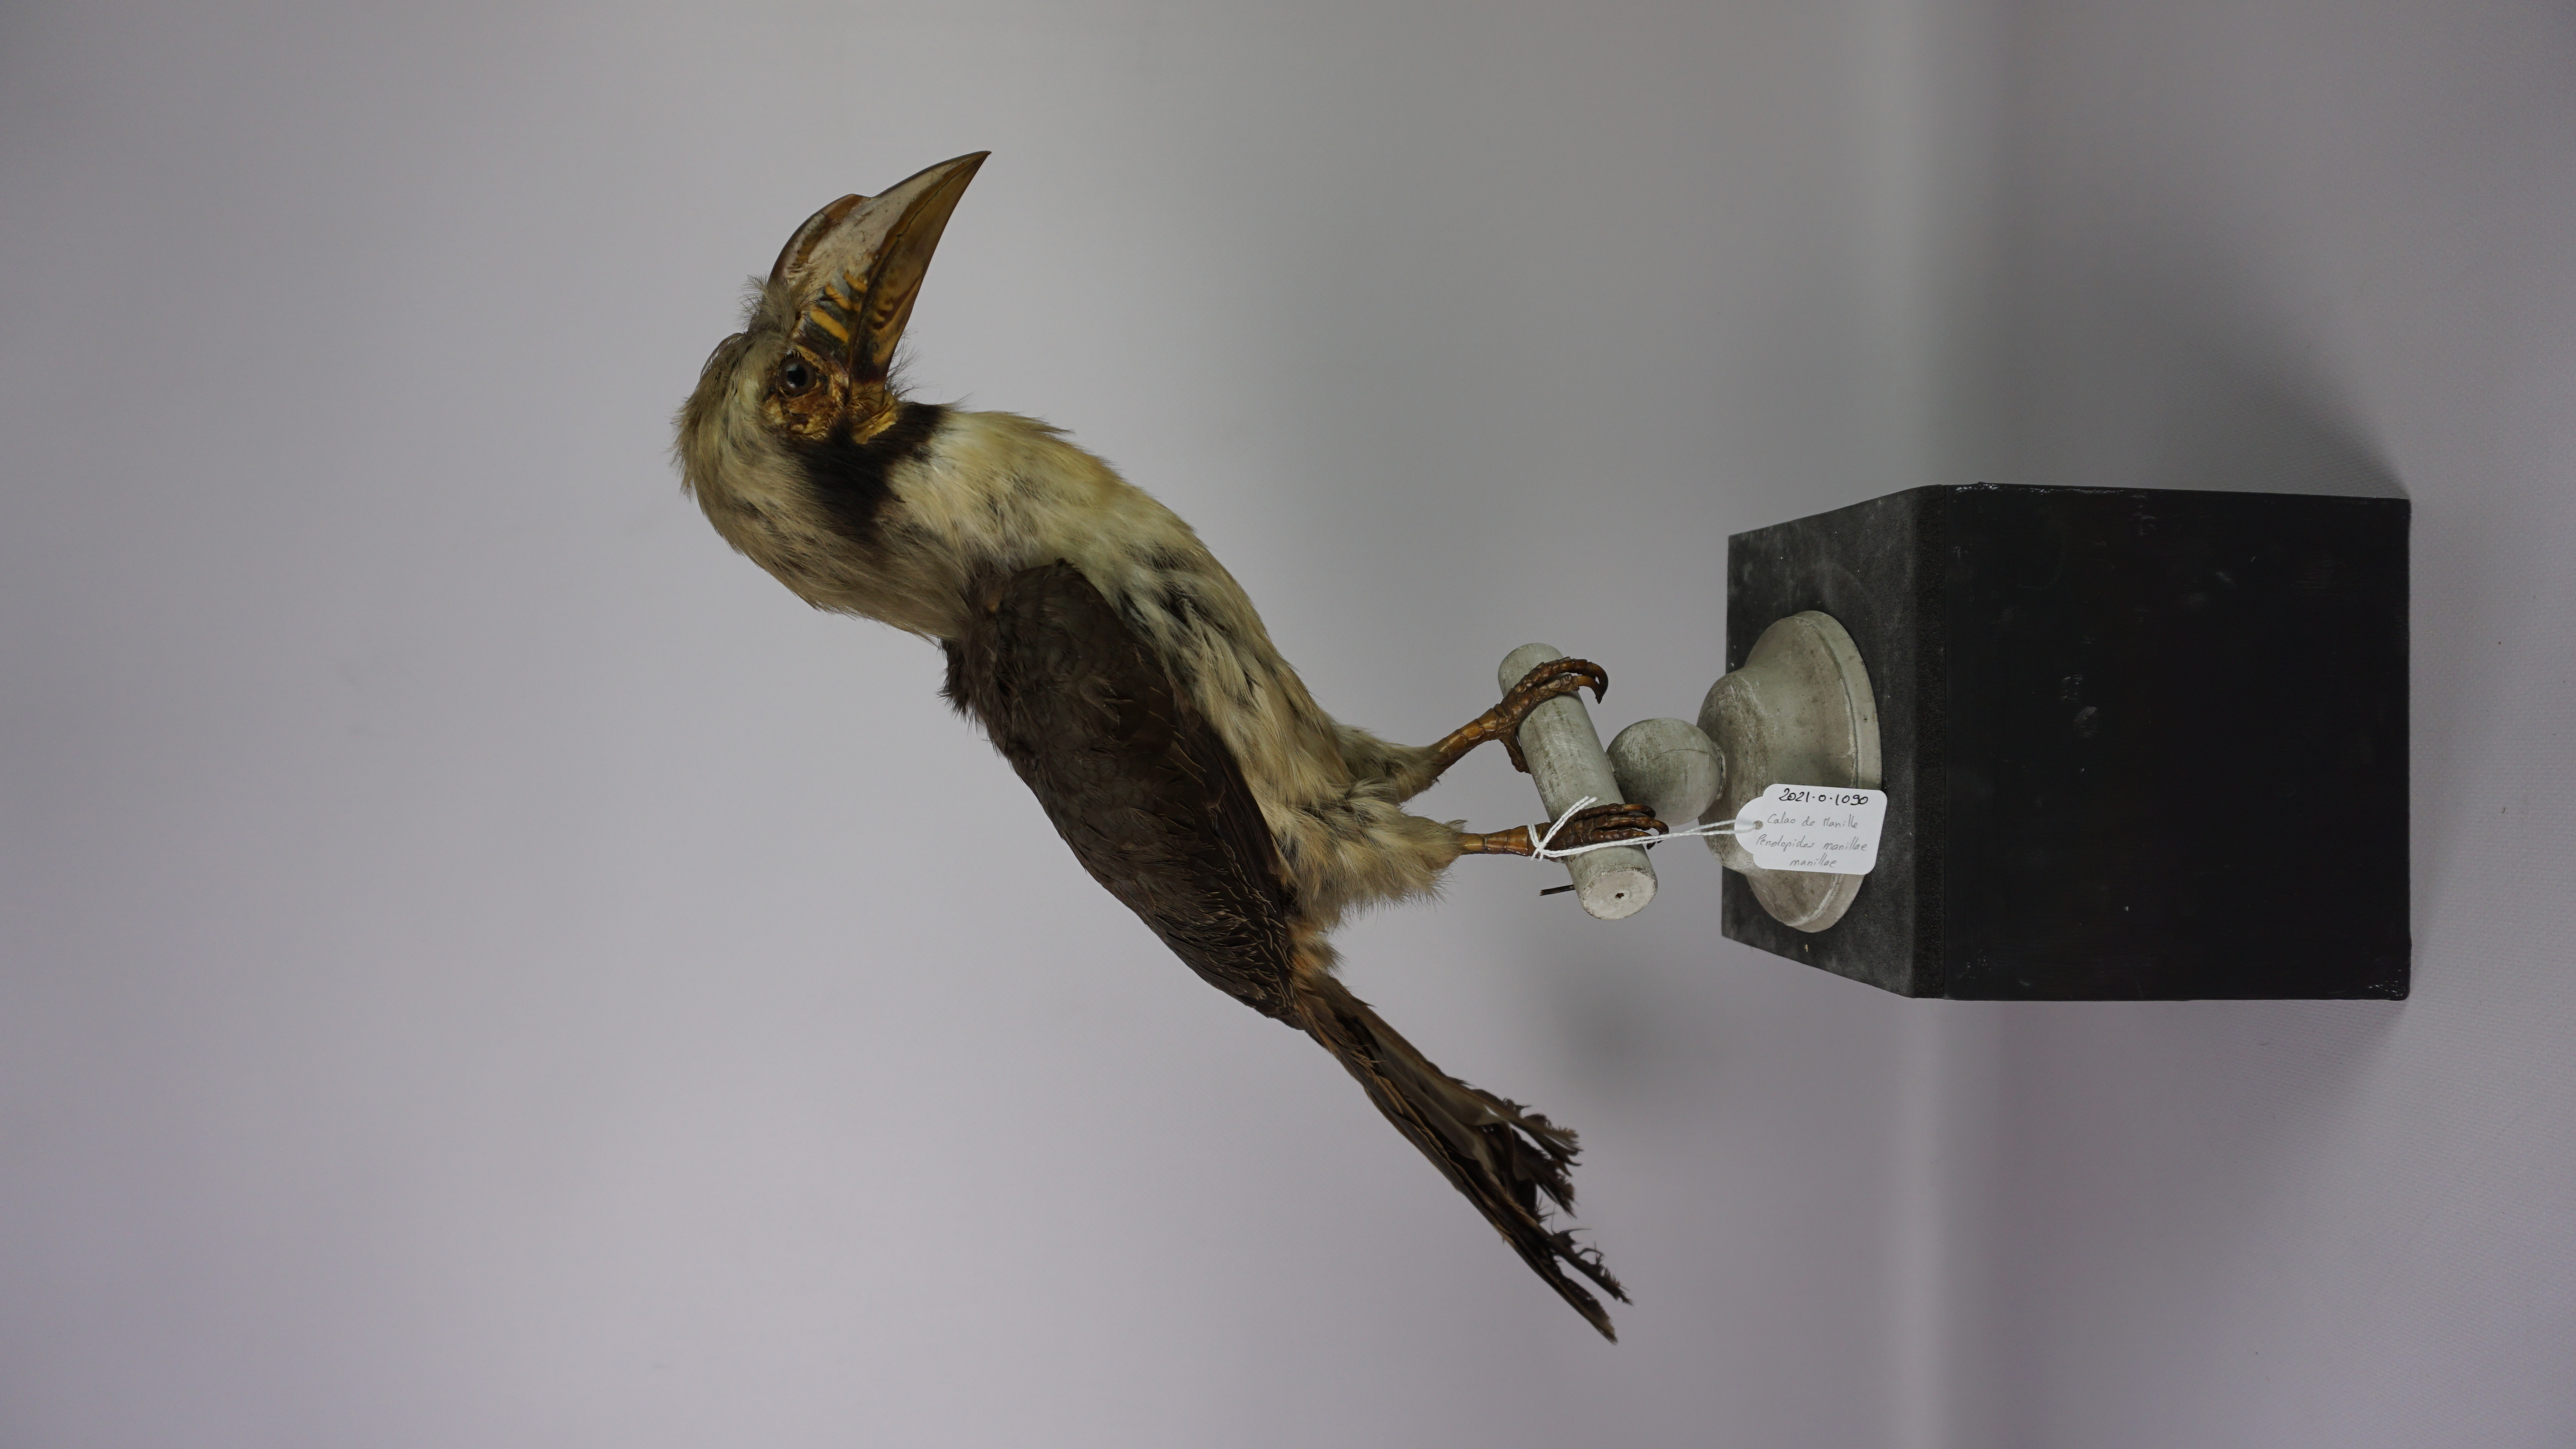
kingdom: Animalia
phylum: Chordata
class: Aves
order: Bucerotiformes
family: Bucerotidae
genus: Penelopides
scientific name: Penelopides manillae
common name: Luzon hornbill
